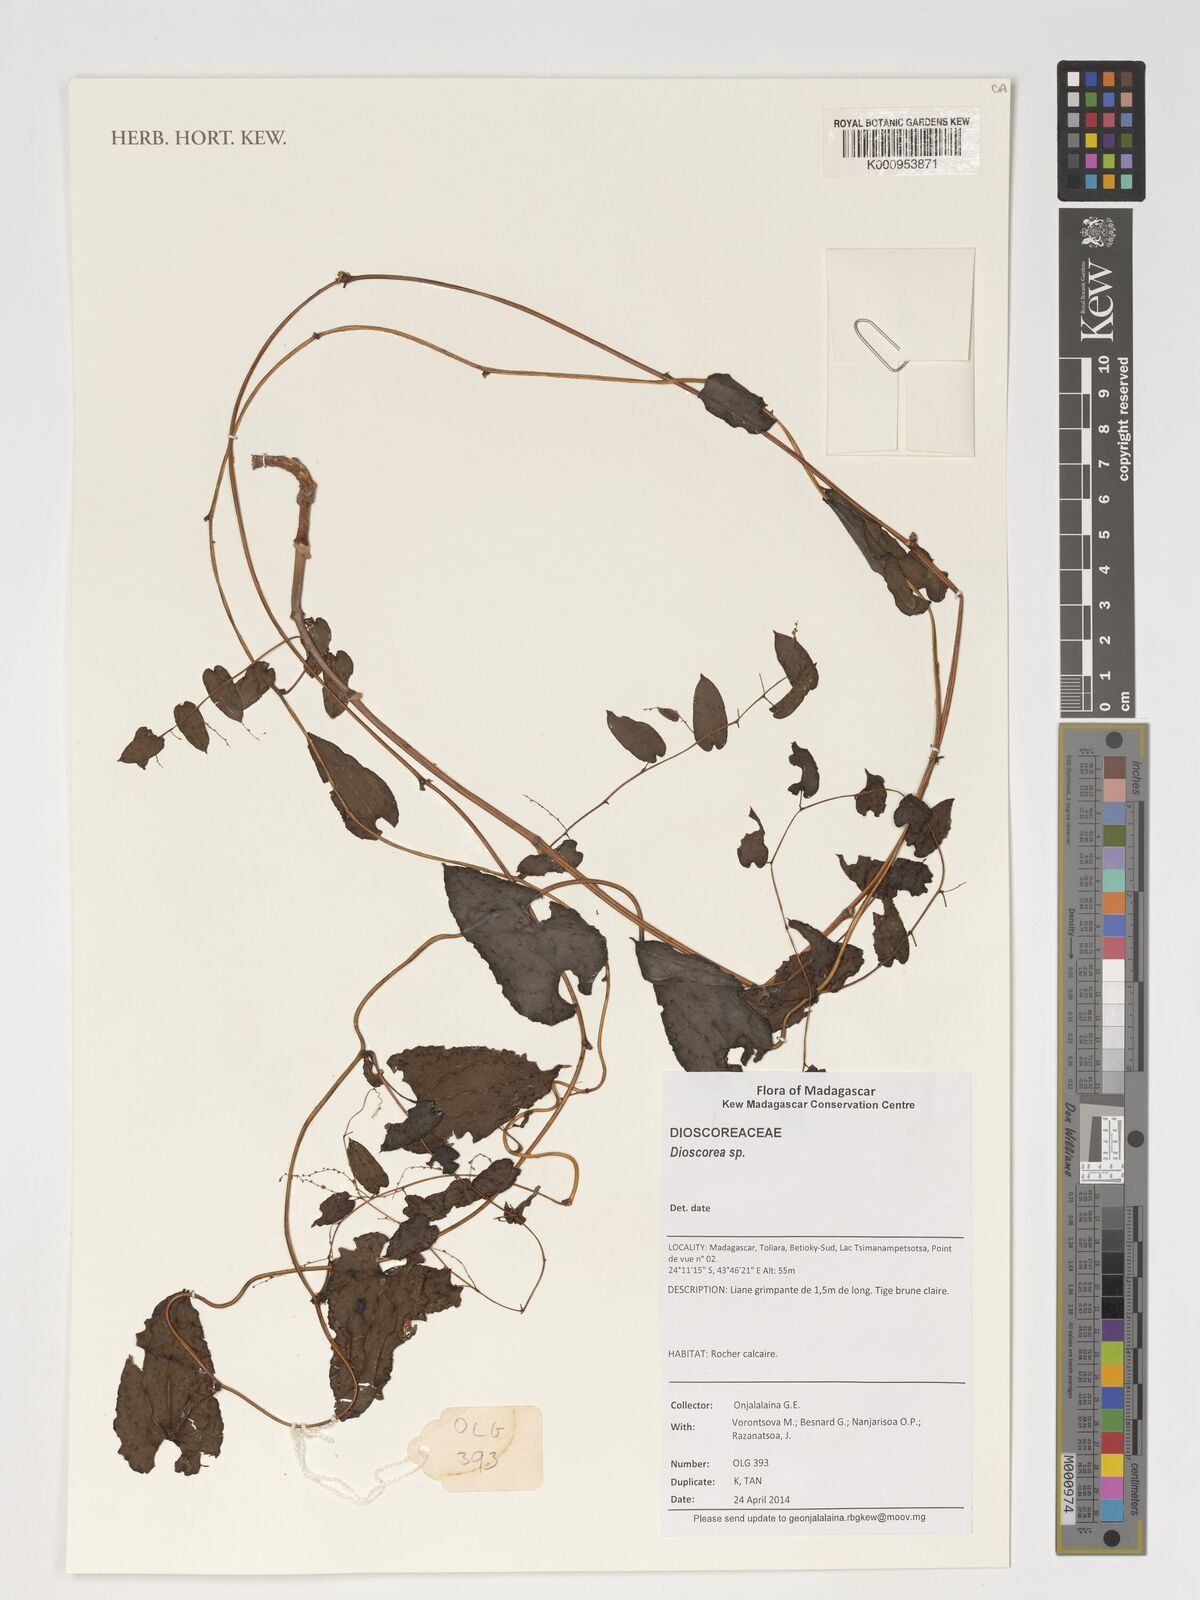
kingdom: Plantae
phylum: Tracheophyta
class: Liliopsida
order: Dioscoreales
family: Dioscoreaceae
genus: Dioscorea
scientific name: Dioscorea
